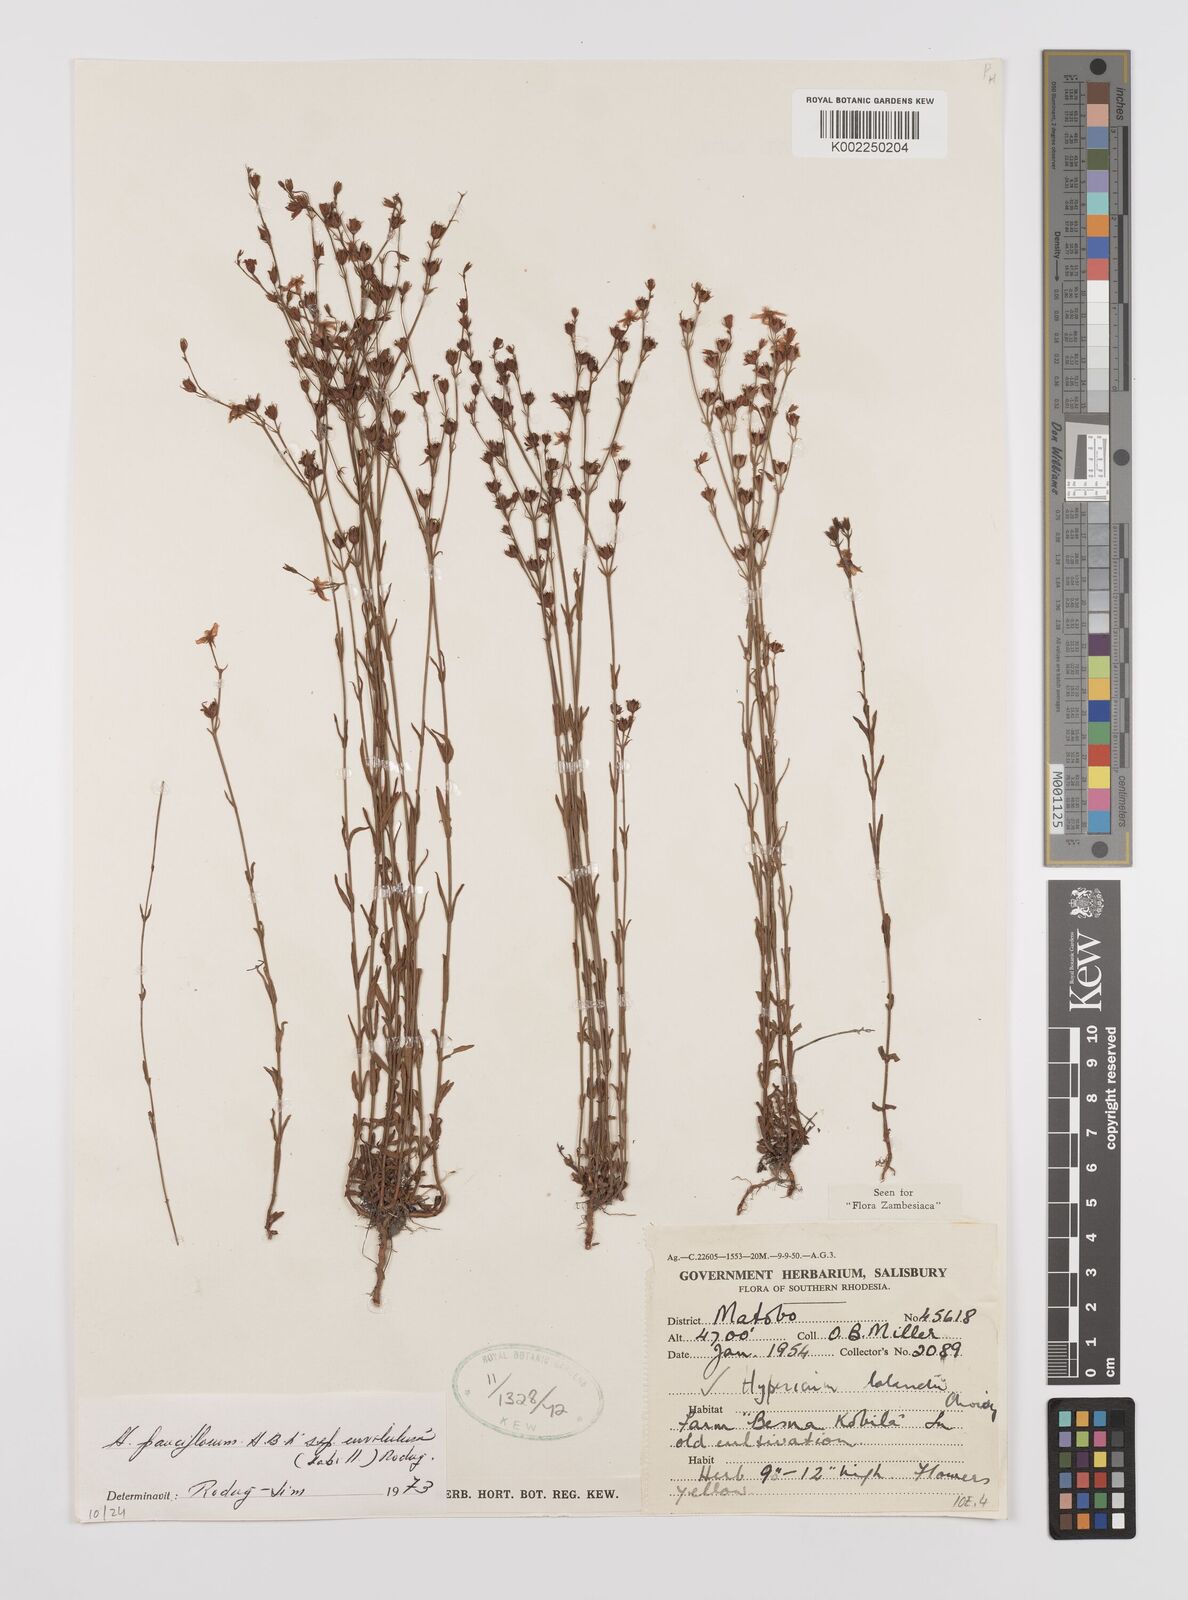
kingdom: Plantae
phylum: Tracheophyta
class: Magnoliopsida
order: Malpighiales
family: Hypericaceae
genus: Hypericum
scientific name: Hypericum lalandii
